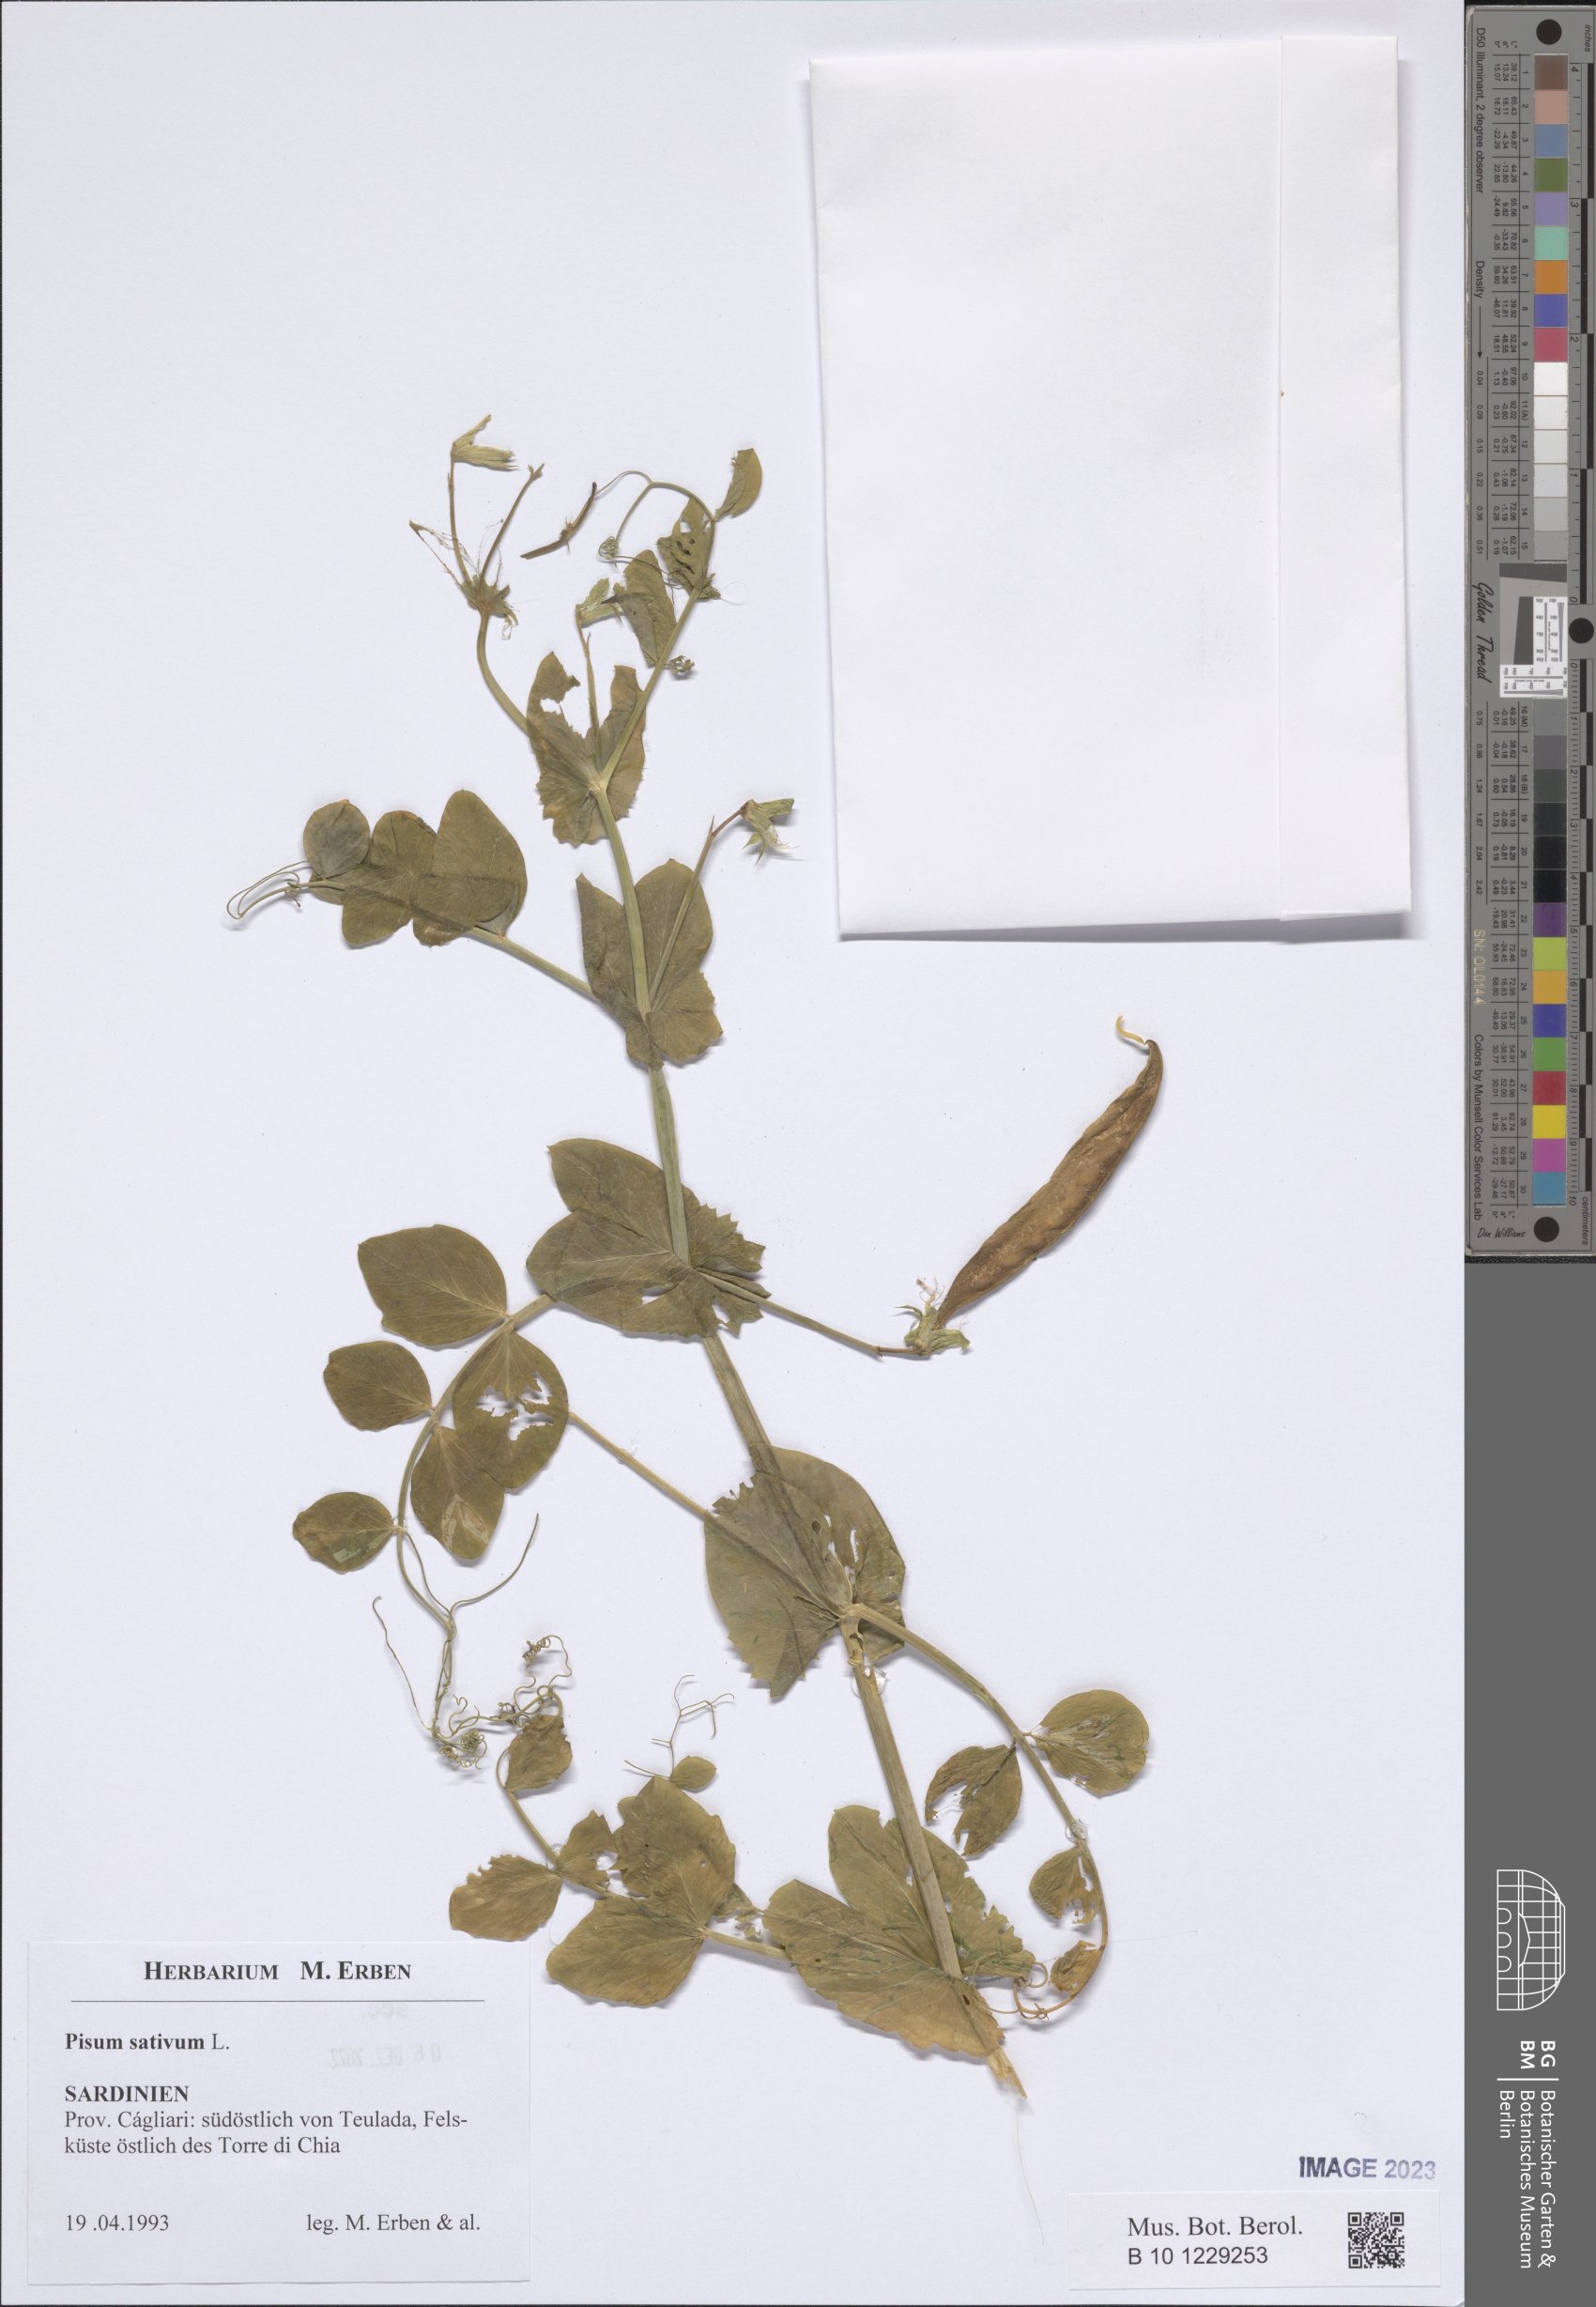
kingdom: Plantae
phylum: Tracheophyta
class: Magnoliopsida
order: Fabales
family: Fabaceae
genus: Lathyrus
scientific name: Lathyrus oleraceus
